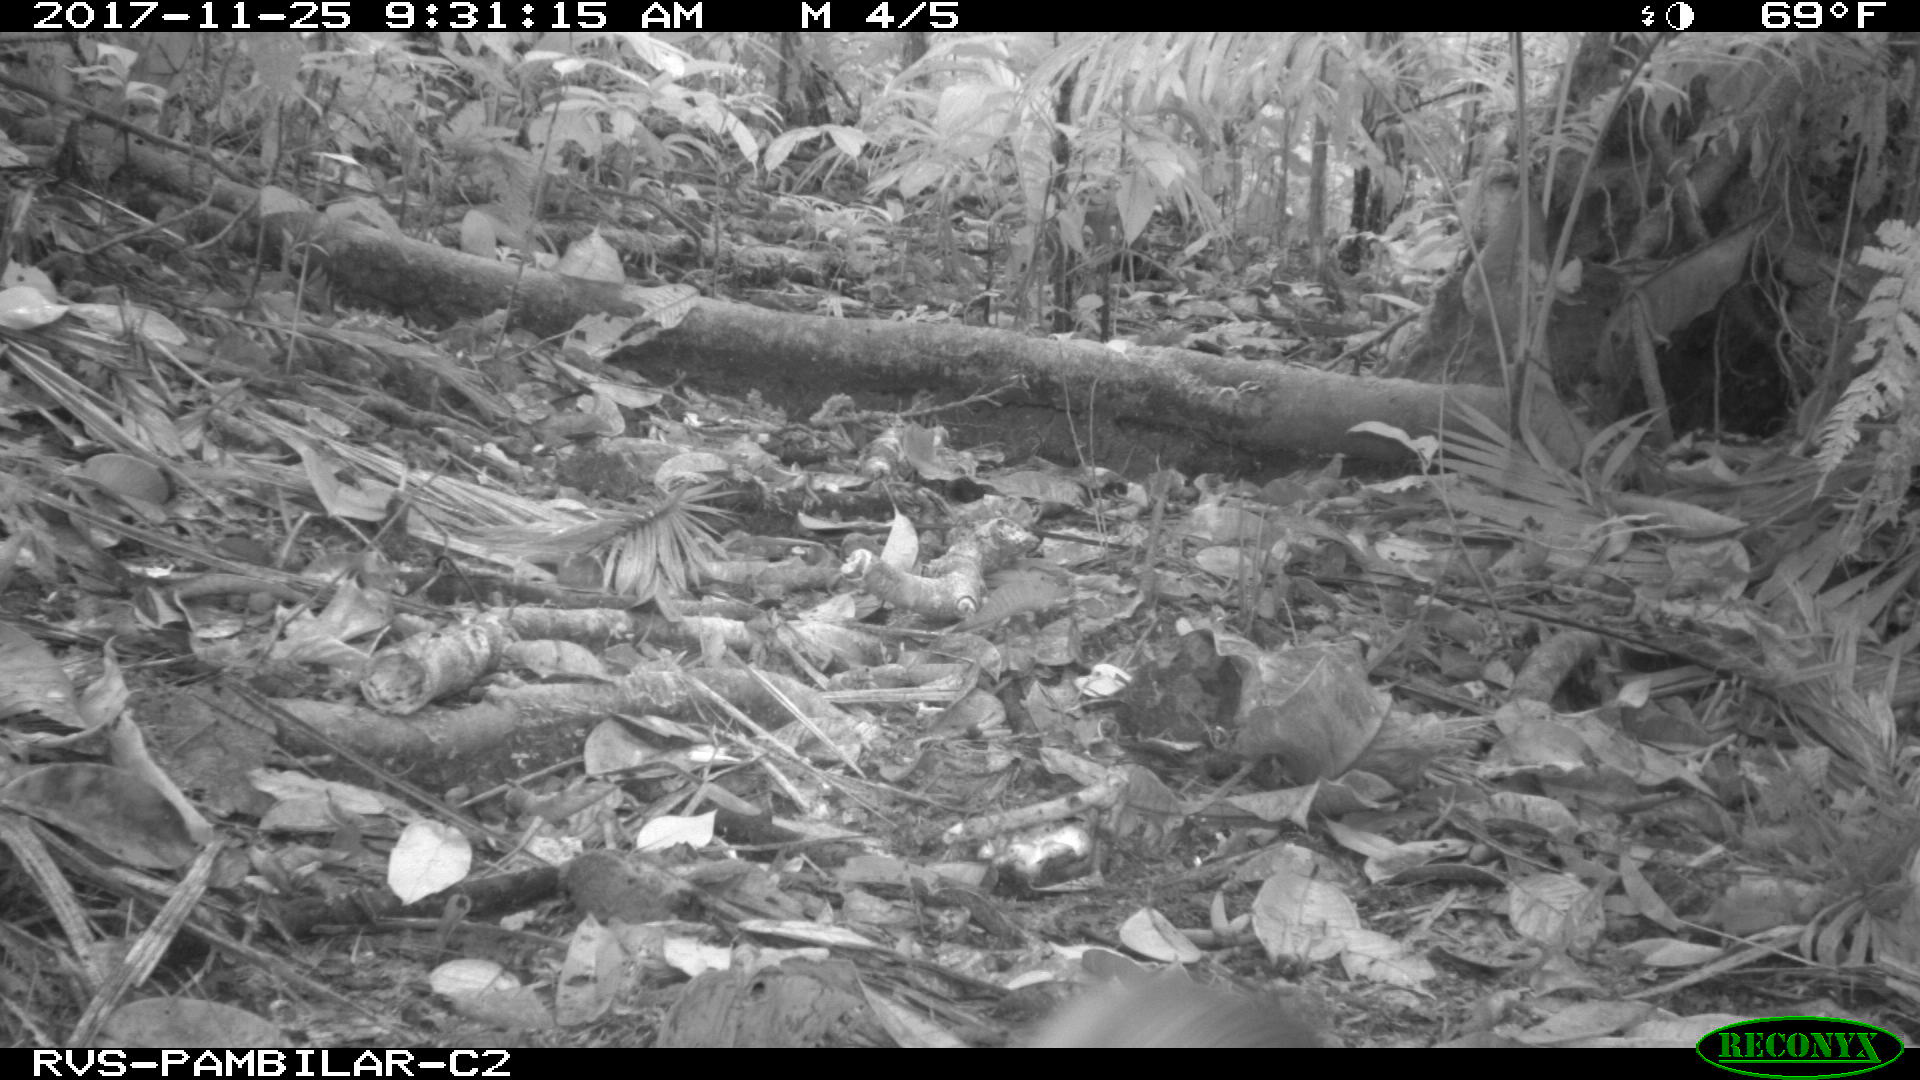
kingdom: Animalia
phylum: Chordata
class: Mammalia
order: Rodentia
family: Sciuridae
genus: Sciurus
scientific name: Sciurus granatensis
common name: Red-tailed squirrel
